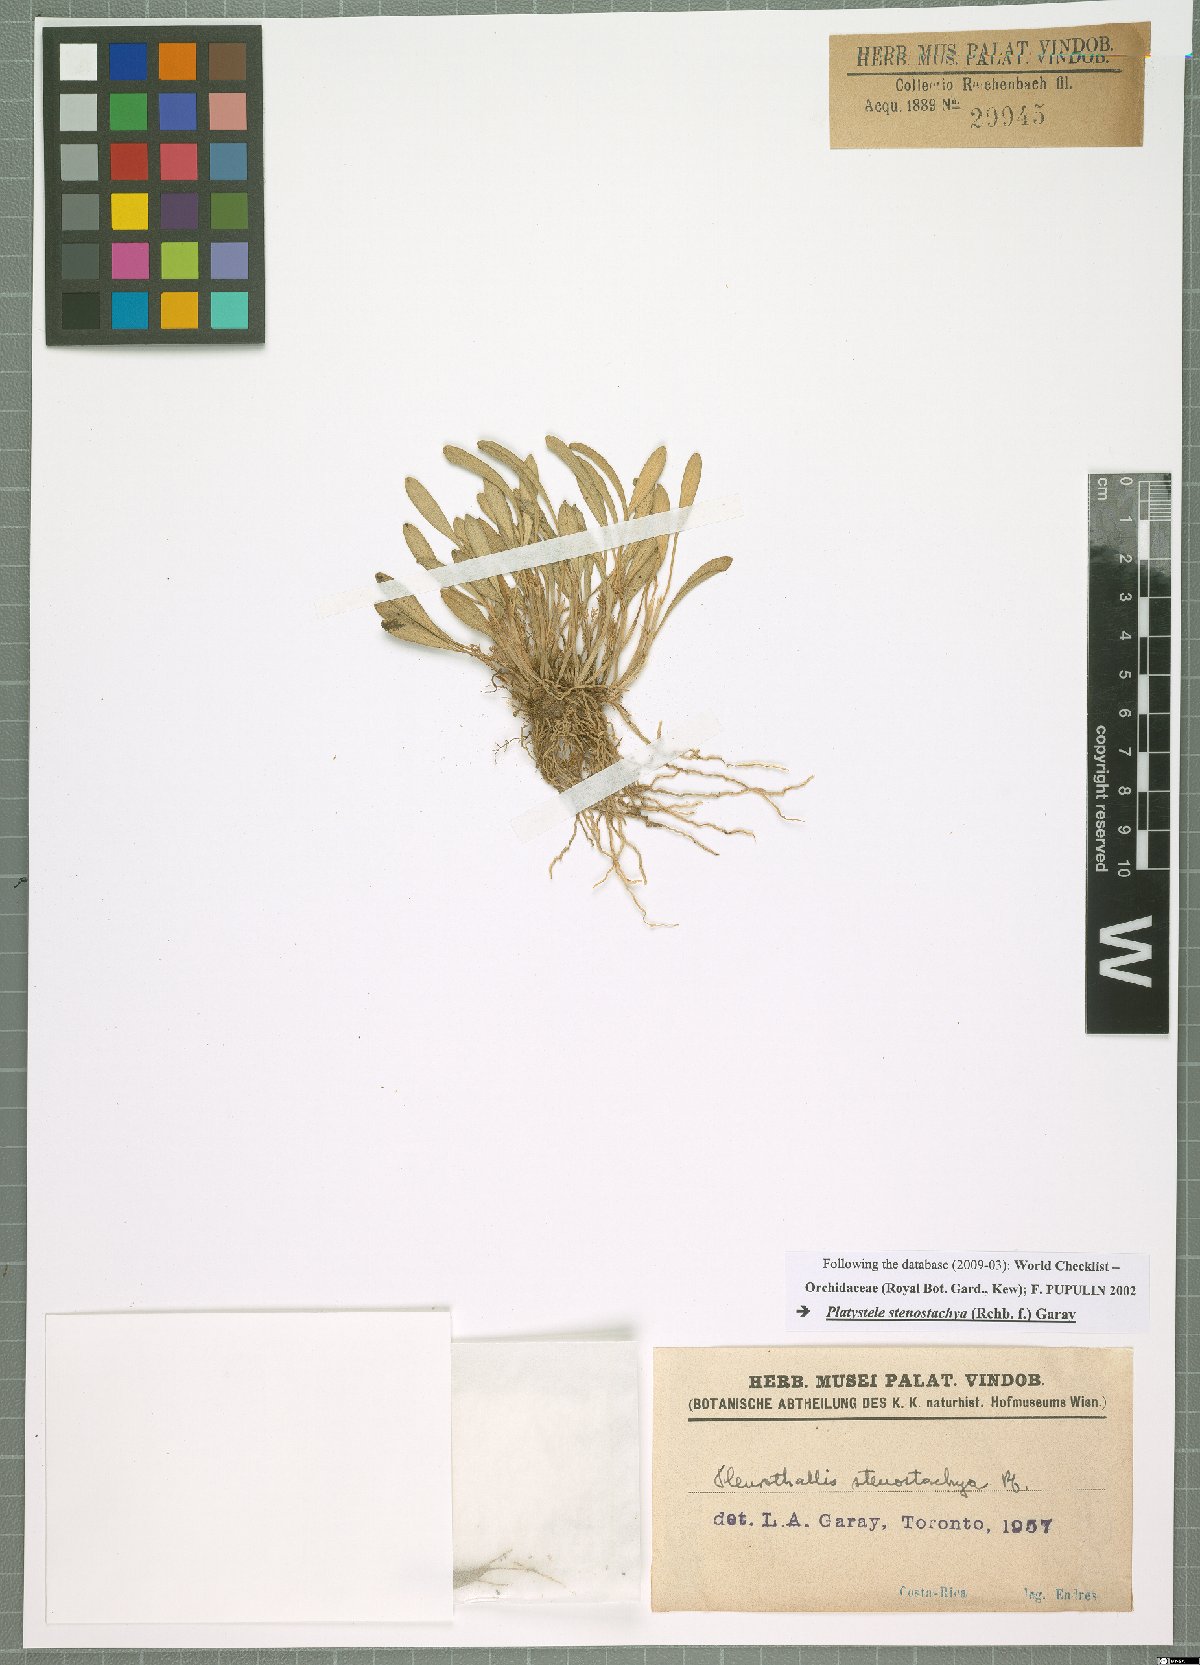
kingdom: Plantae
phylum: Tracheophyta
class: Liliopsida
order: Asparagales
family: Orchidaceae
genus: Platystele
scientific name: Platystele stenostachya
